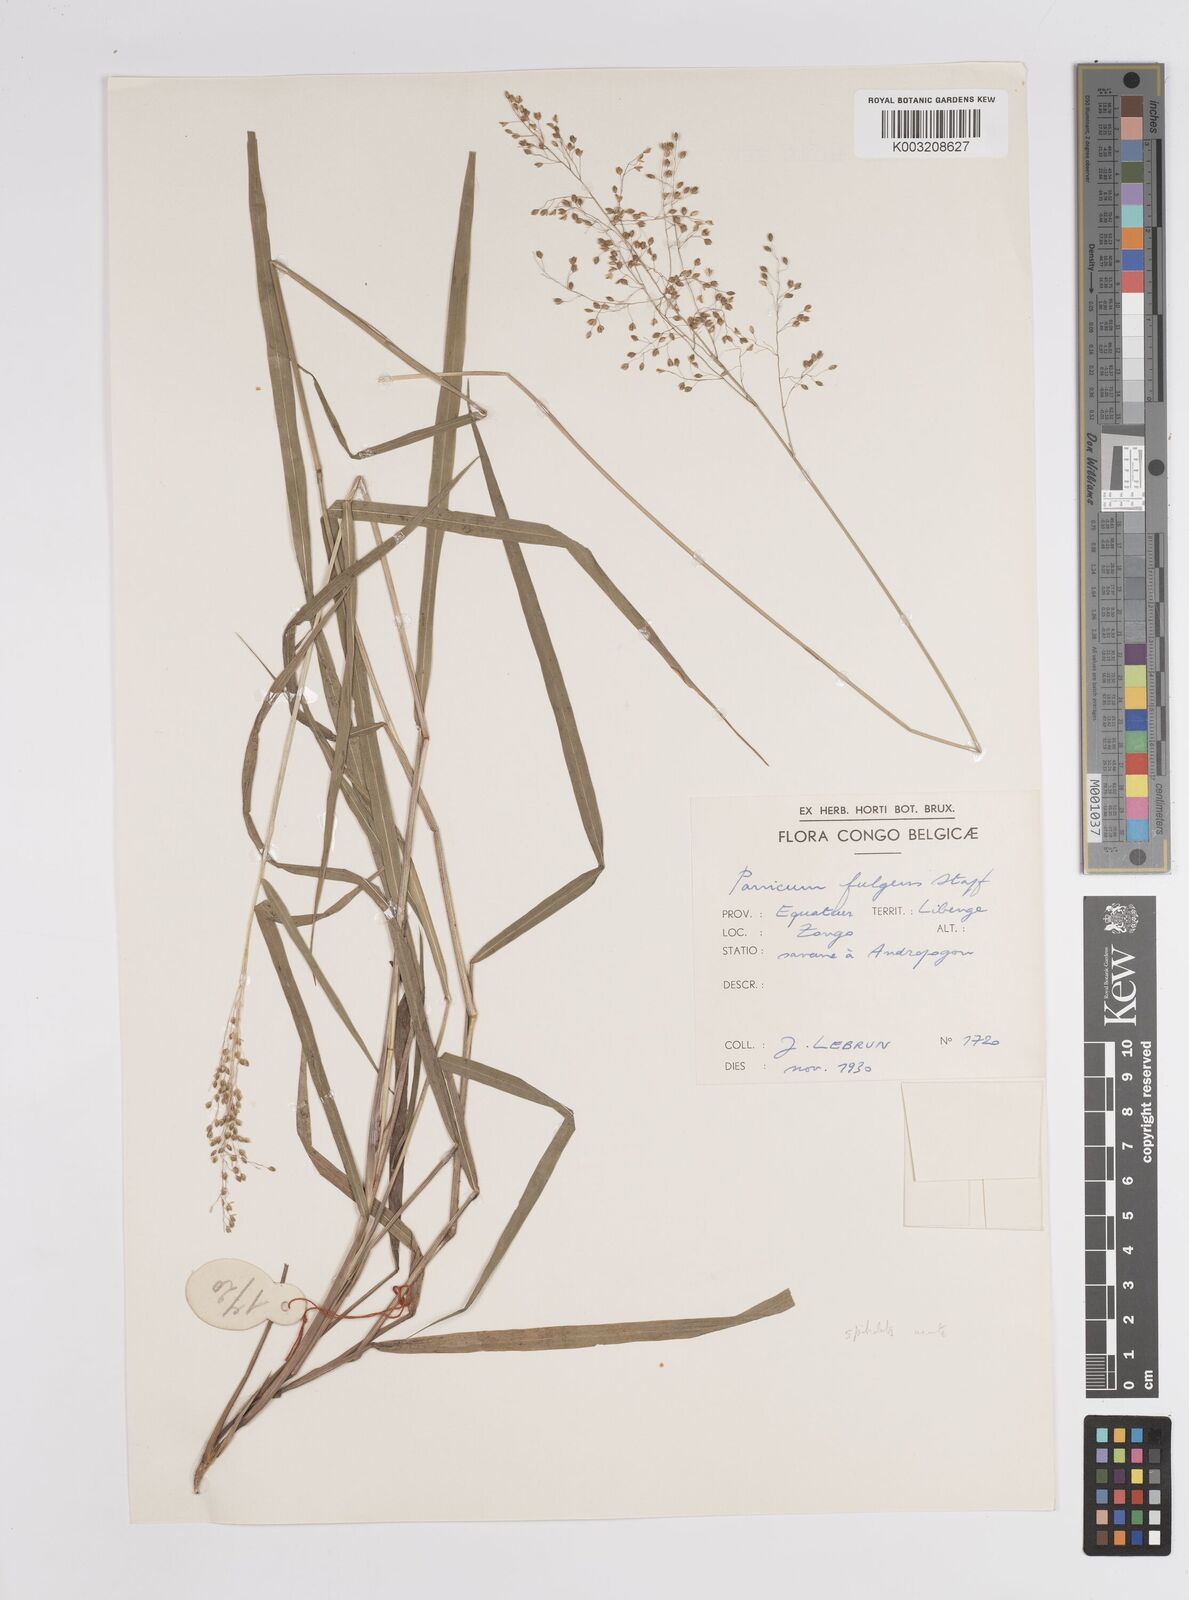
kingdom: Plantae
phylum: Tracheophyta
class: Liliopsida
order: Poales
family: Poaceae
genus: Trichanthecium
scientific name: Trichanthecium nervatum
